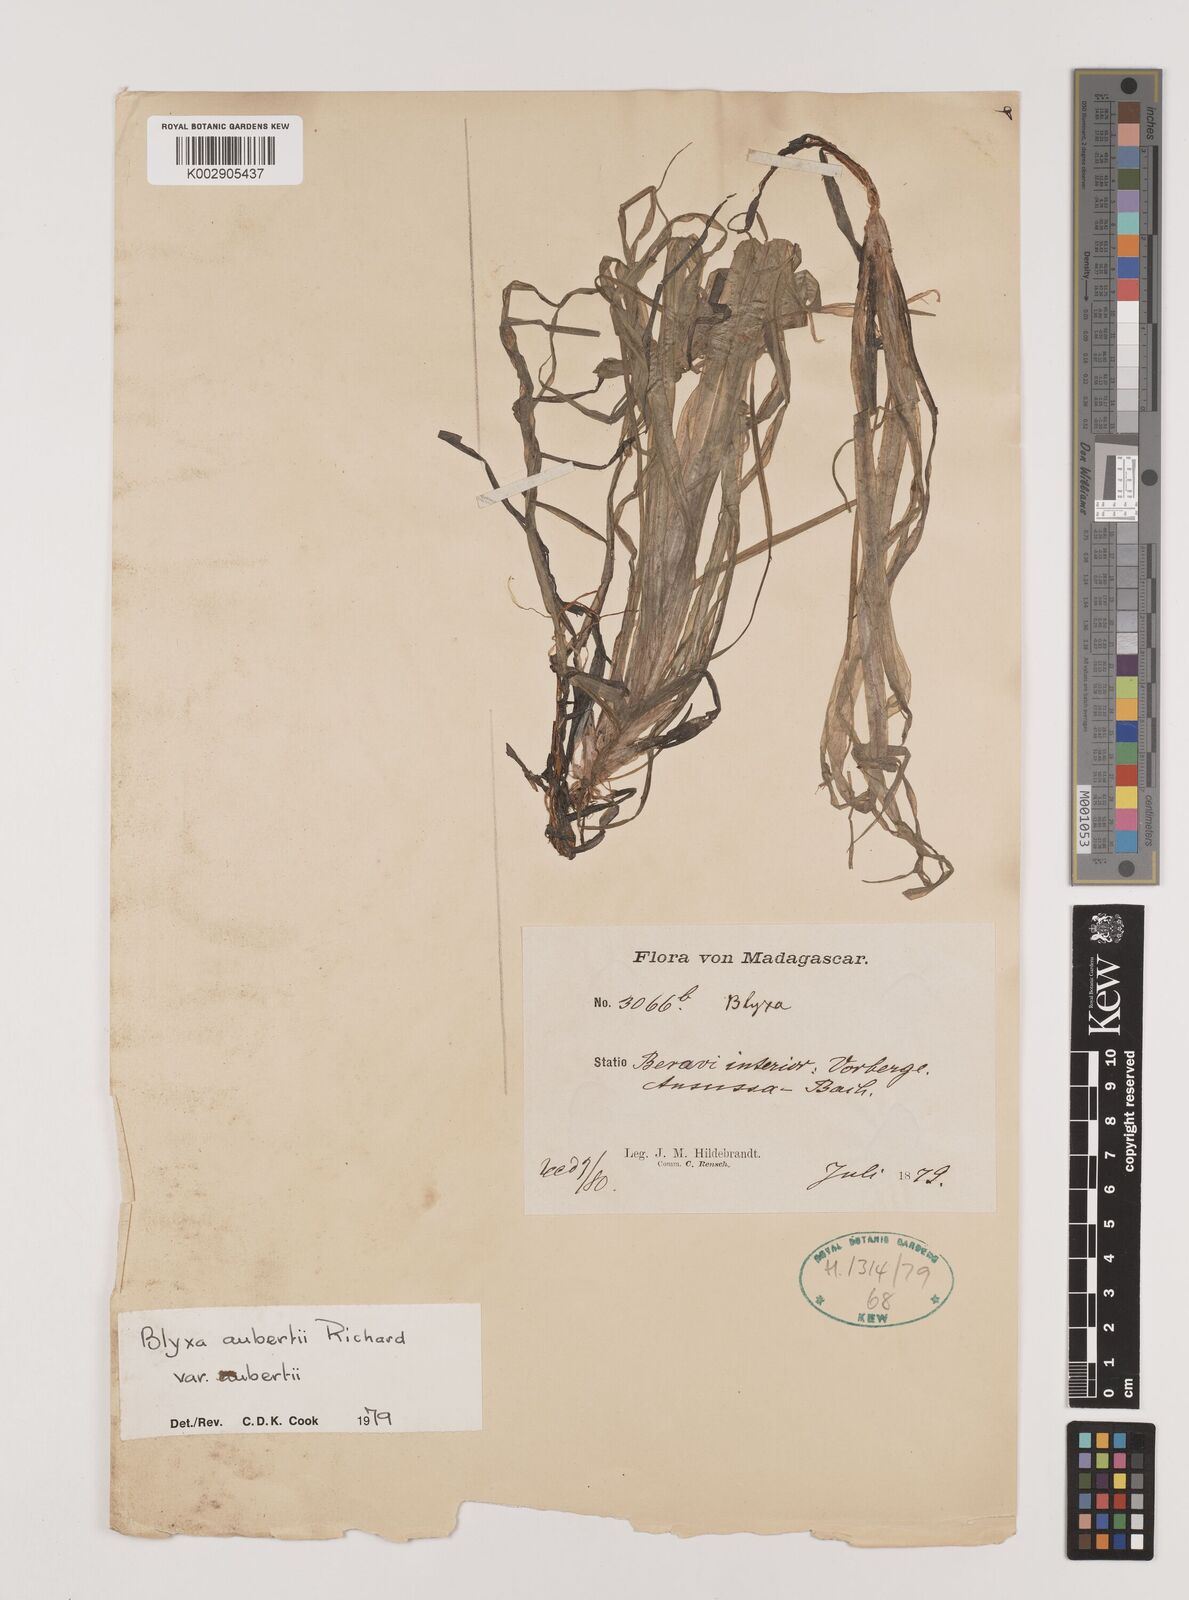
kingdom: Plantae
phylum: Tracheophyta
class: Liliopsida
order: Alismatales
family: Hydrocharitaceae
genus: Blyxa
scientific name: Blyxa aubertii
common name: Roundfruit blyxa
